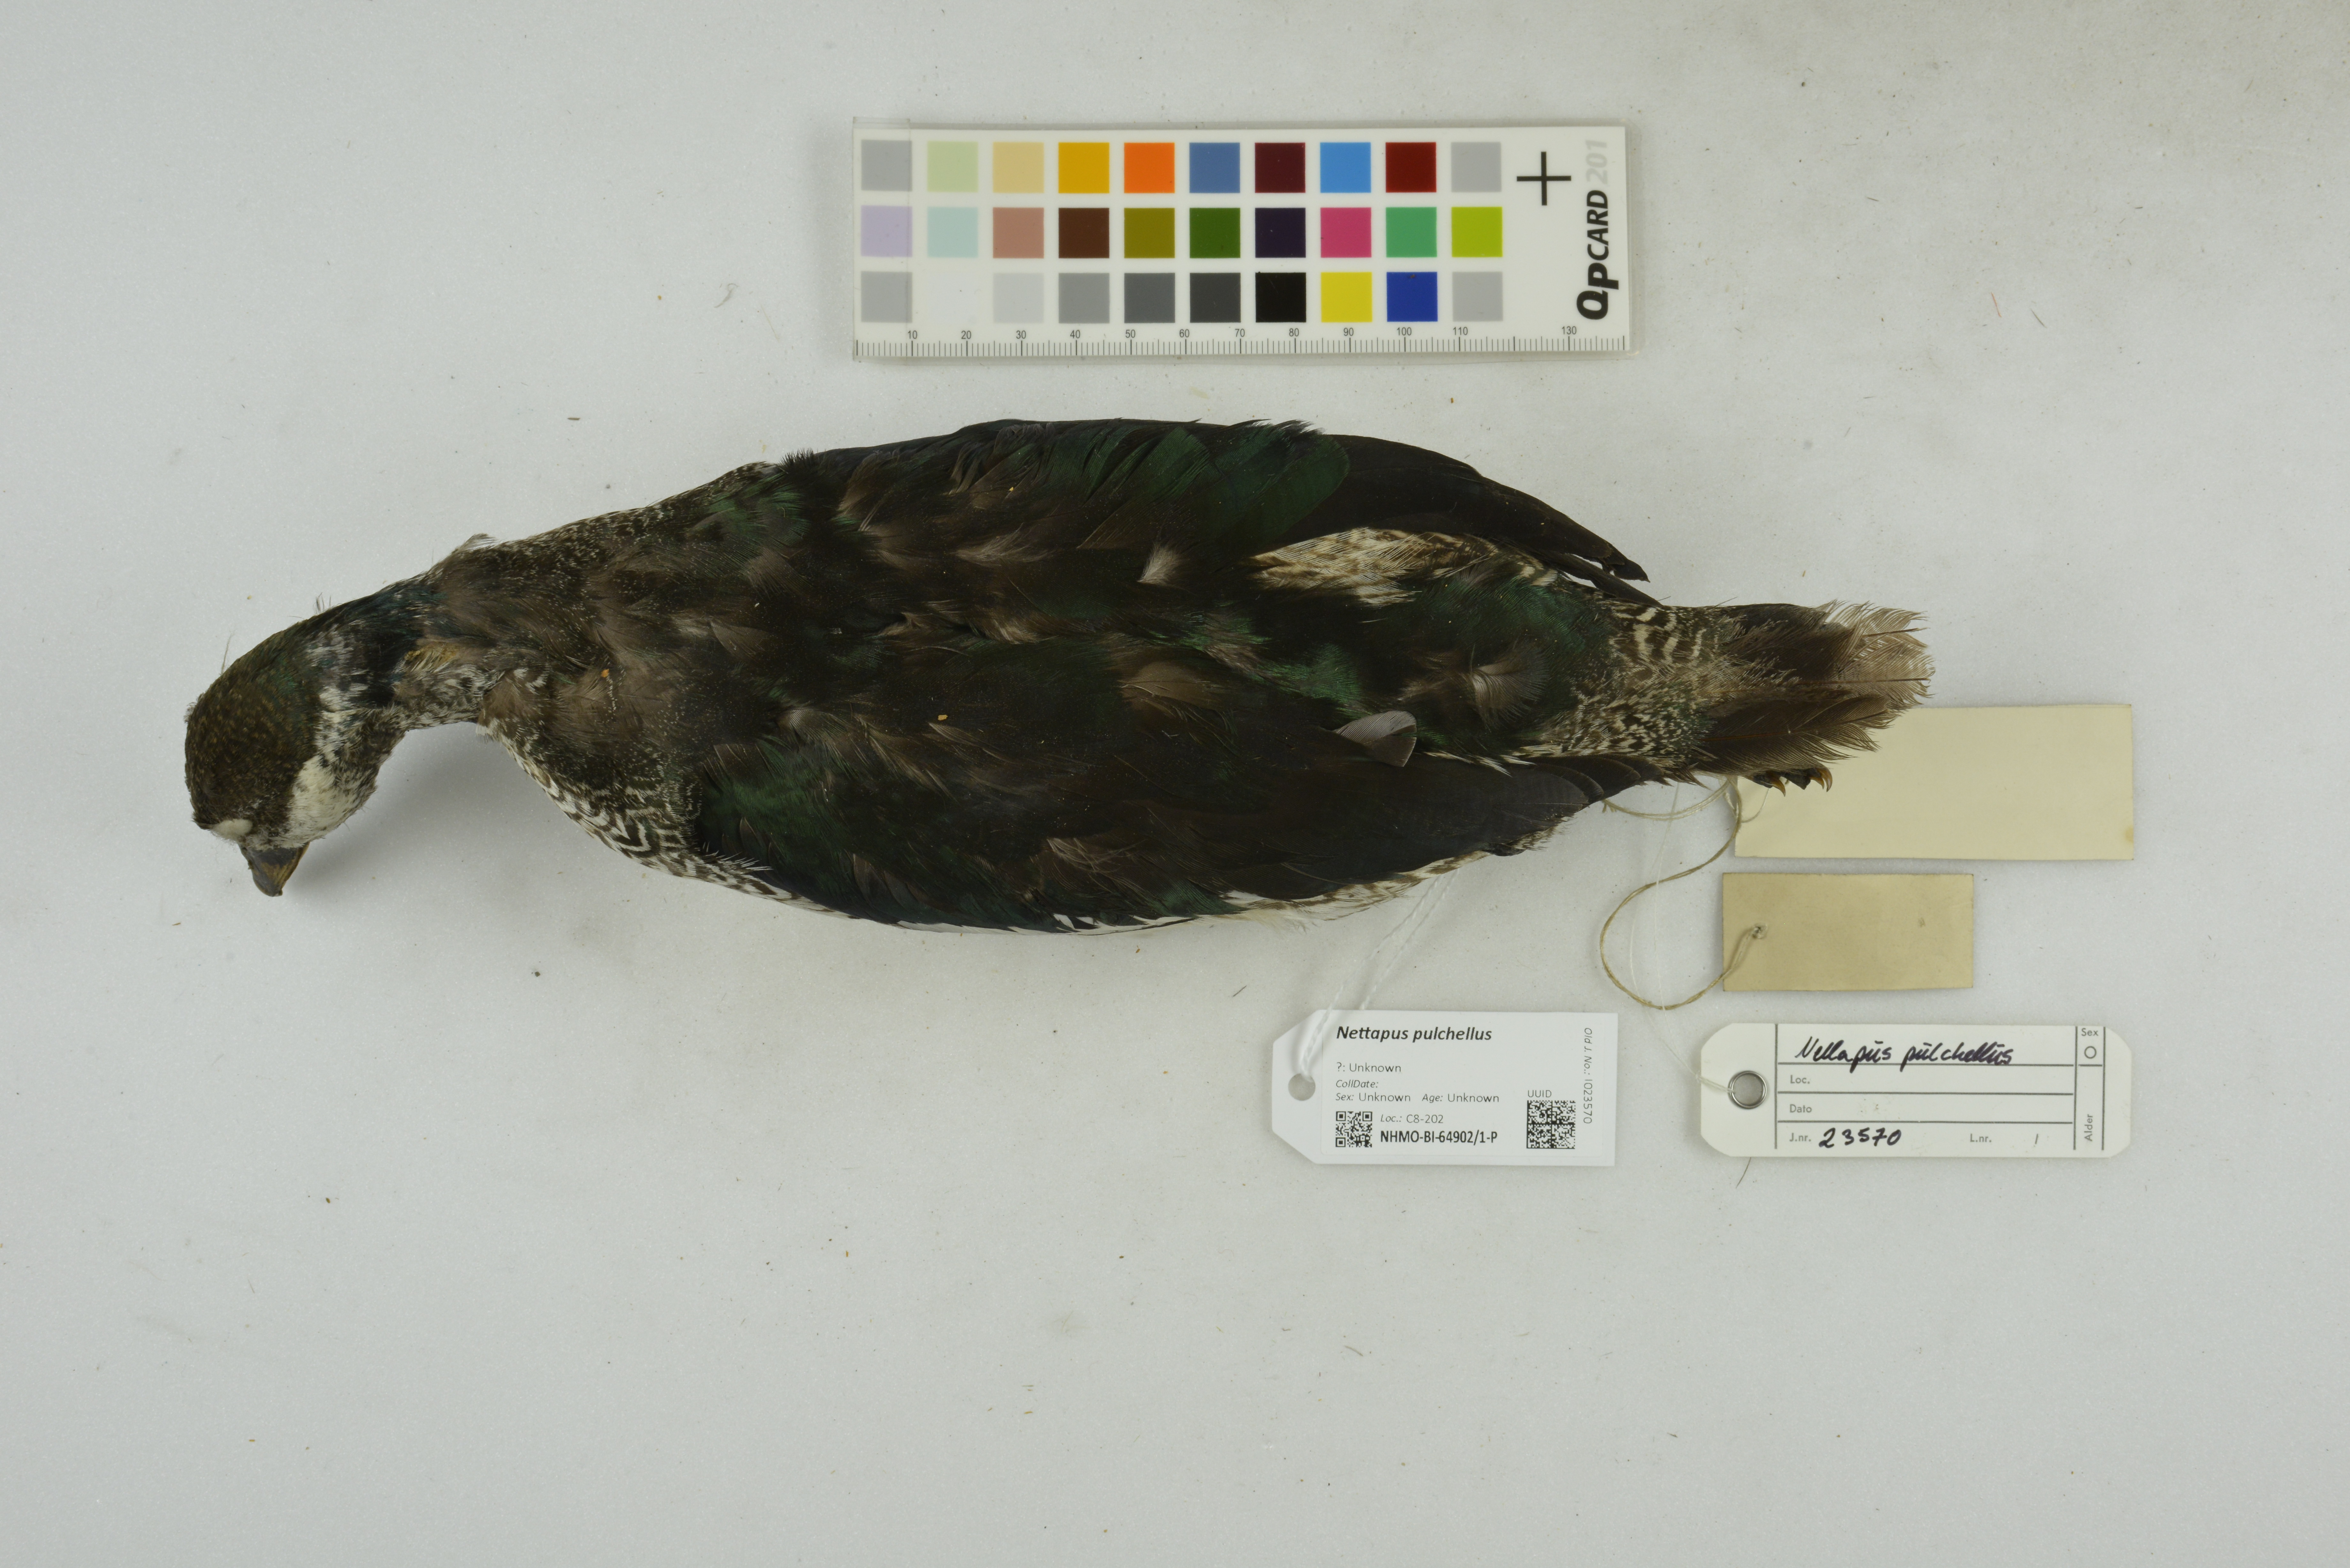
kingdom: Animalia
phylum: Chordata
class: Aves
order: Anseriformes
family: Anatidae
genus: Nettapus
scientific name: Nettapus pulchellus
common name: Green pygmy-goose
